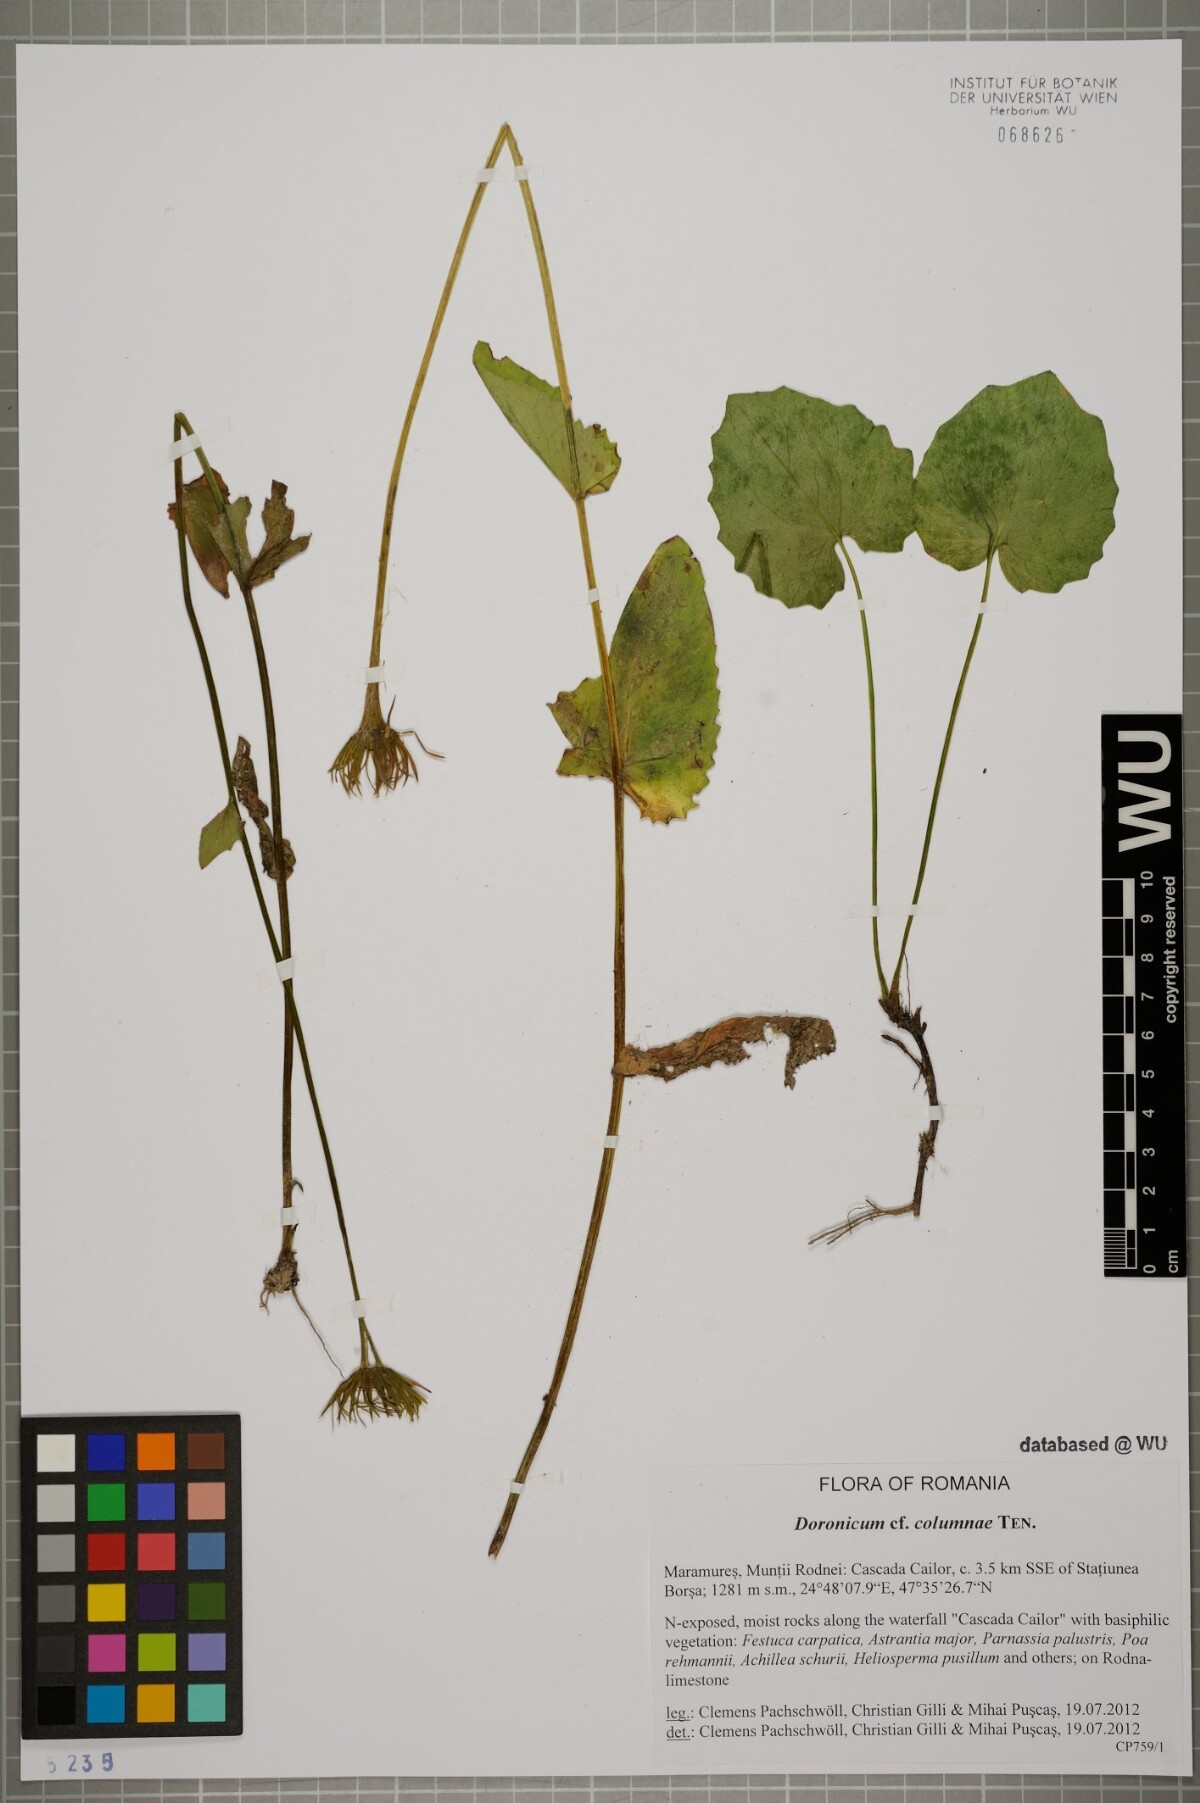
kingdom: Plantae
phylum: Tracheophyta
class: Magnoliopsida
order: Asterales
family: Asteraceae
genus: Doronicum
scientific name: Doronicum columnae
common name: Eastern leopard's-bane
